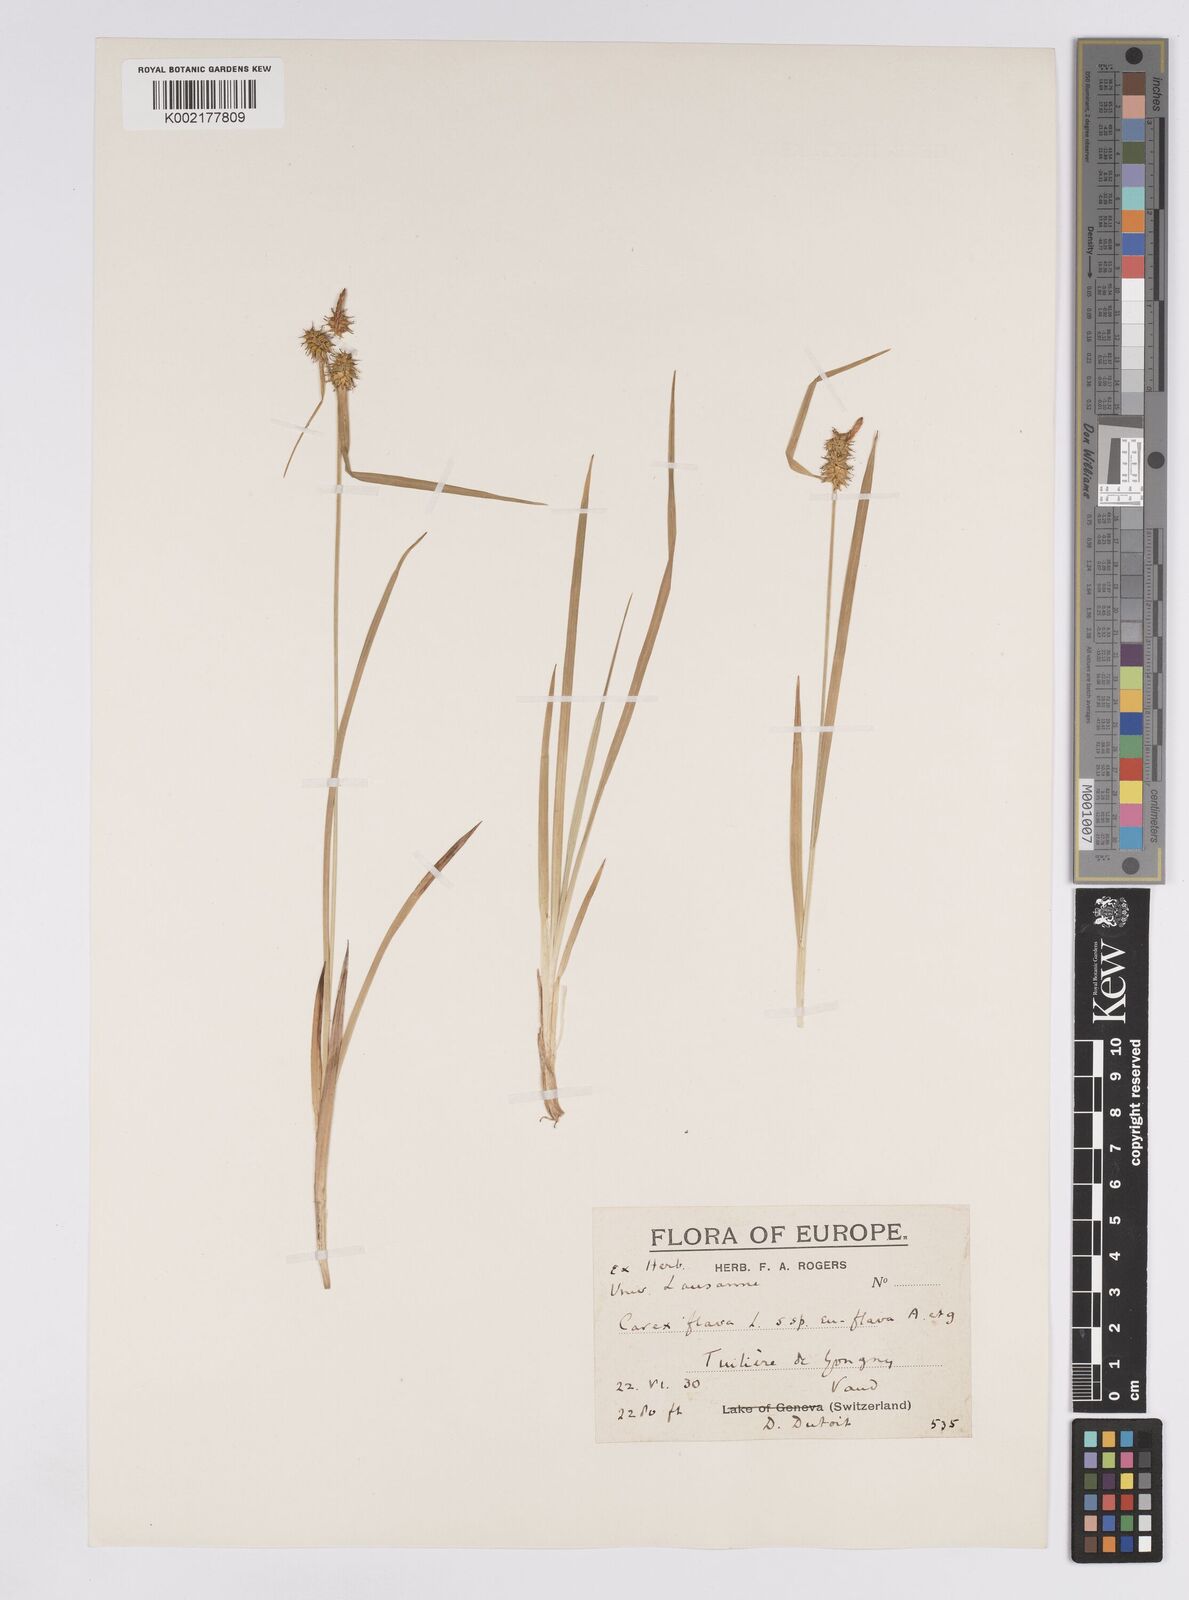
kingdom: Plantae
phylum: Tracheophyta
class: Liliopsida
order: Poales
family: Cyperaceae
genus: Carex
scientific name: Carex flava
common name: Large yellow-sedge
